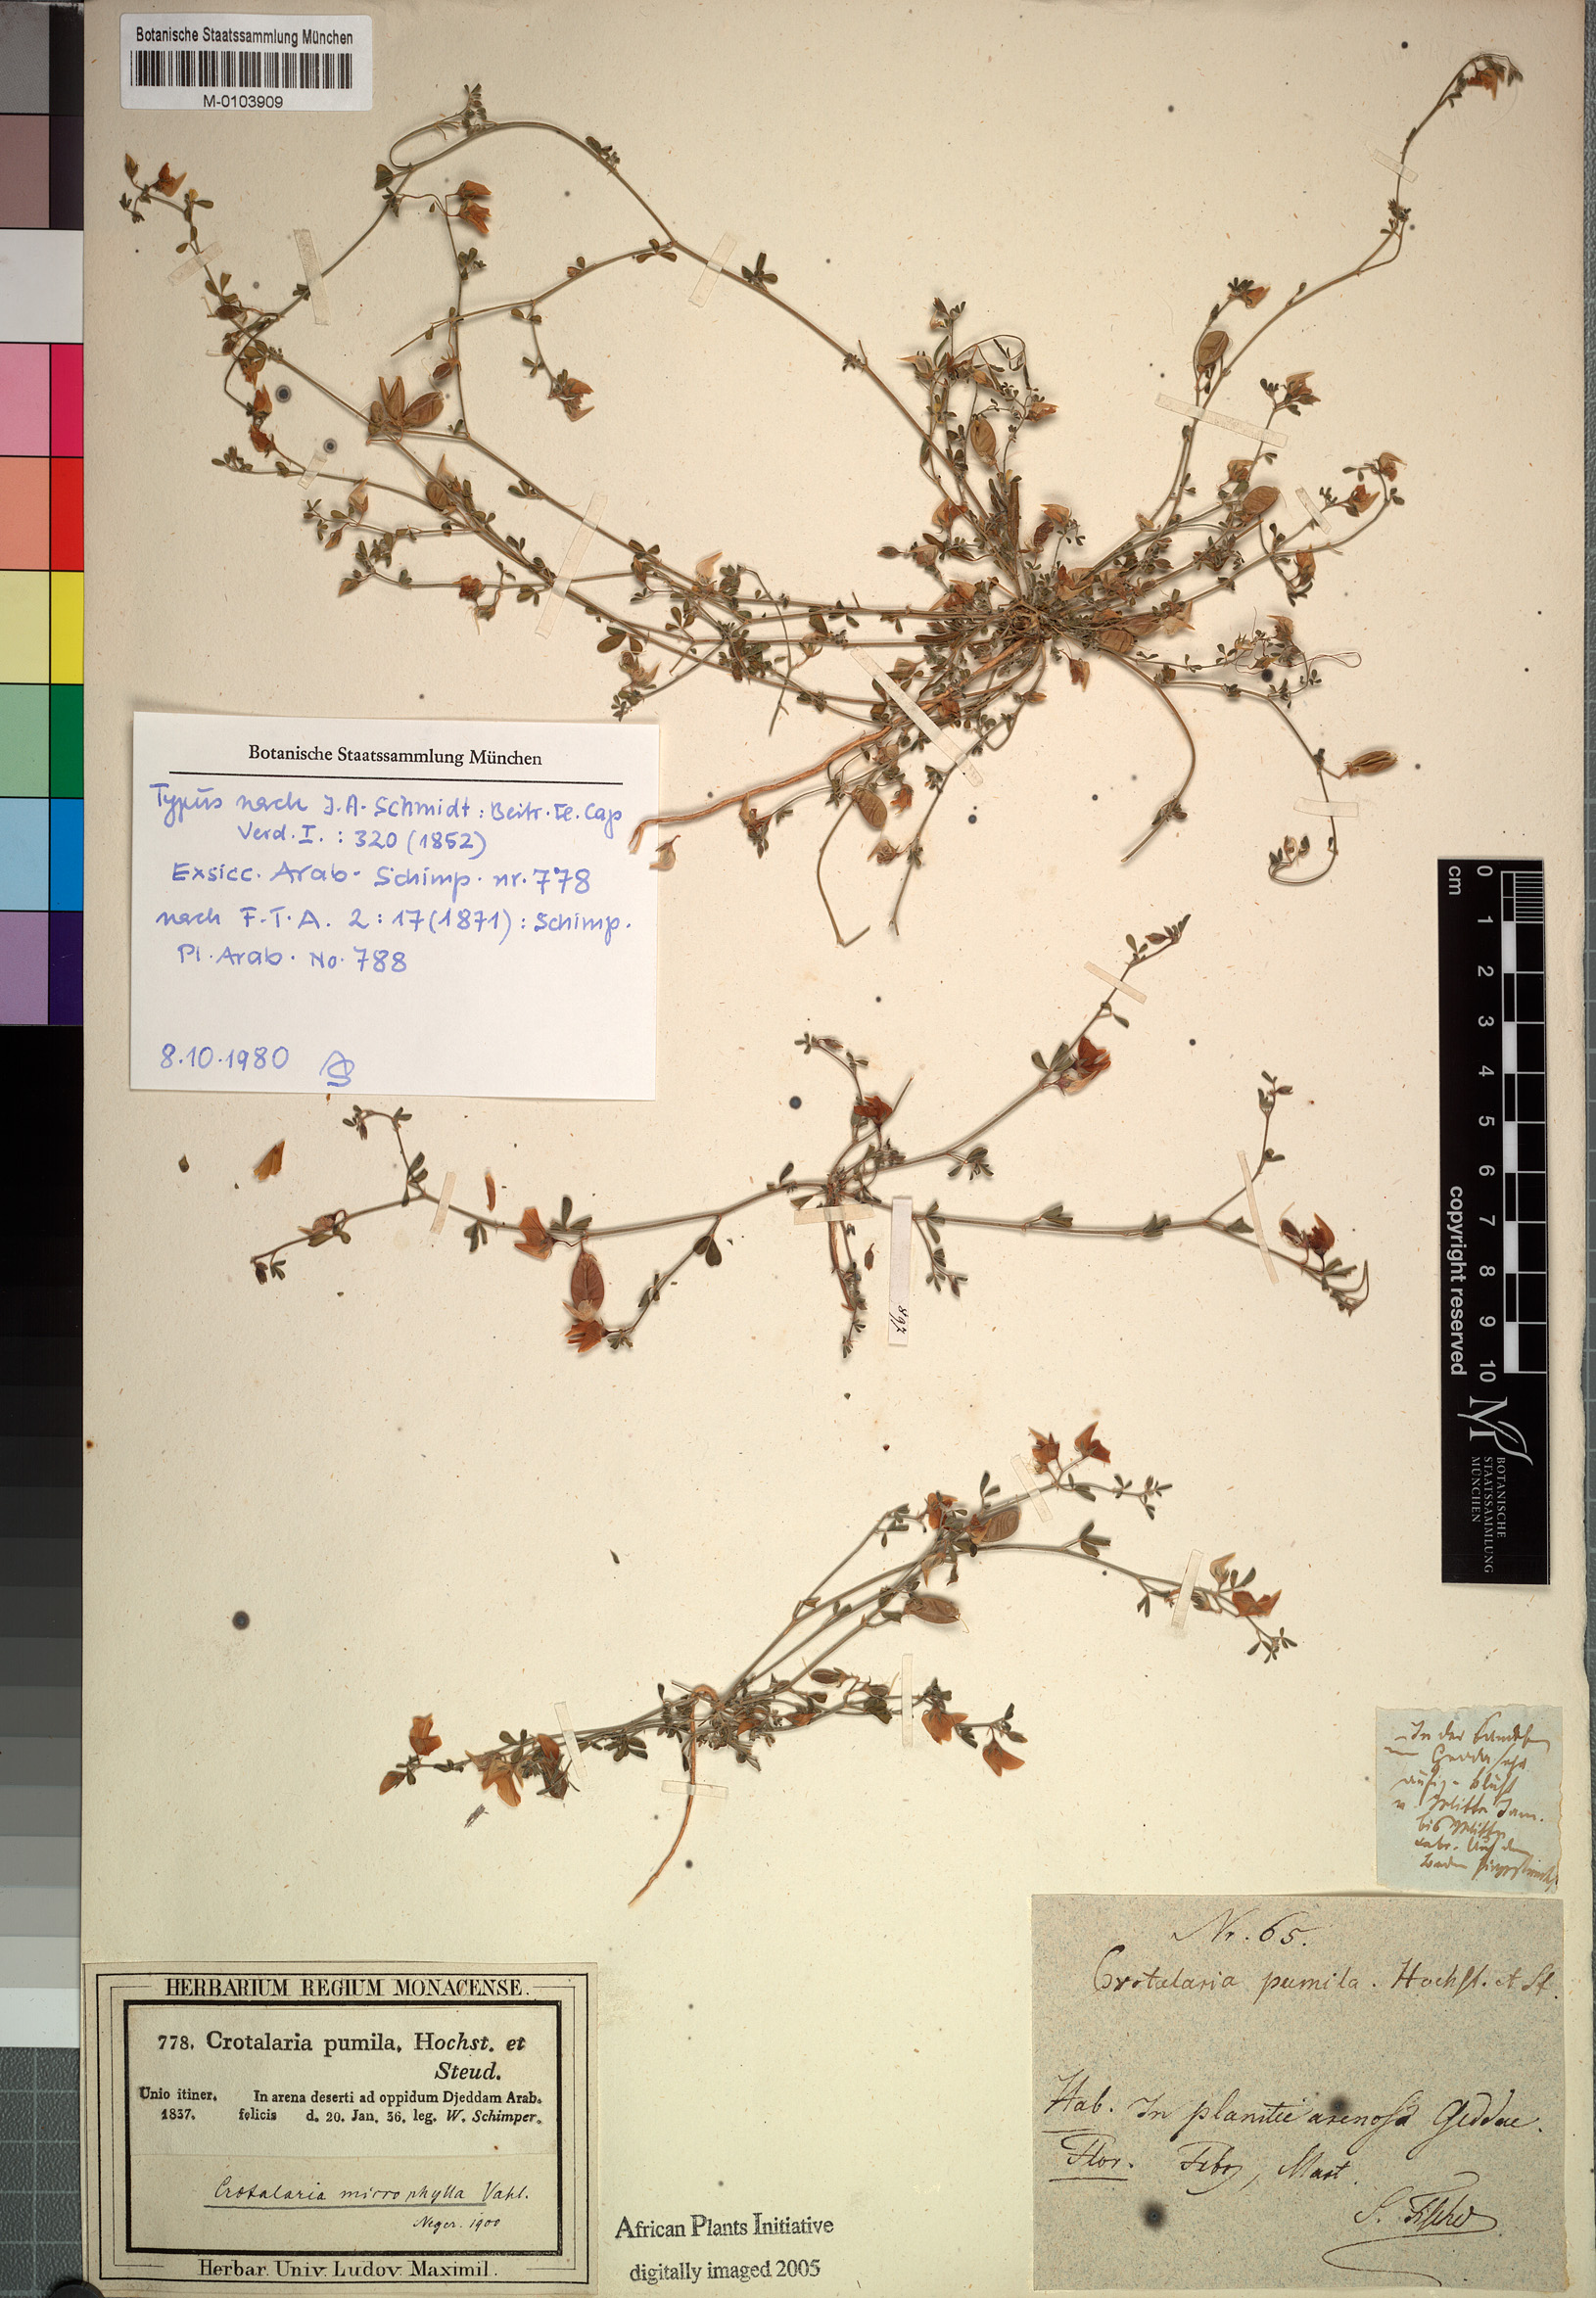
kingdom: Plantae
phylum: Tracheophyta
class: Magnoliopsida
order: Fabales
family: Fabaceae
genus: Crotalaria
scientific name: Crotalaria microphylla
